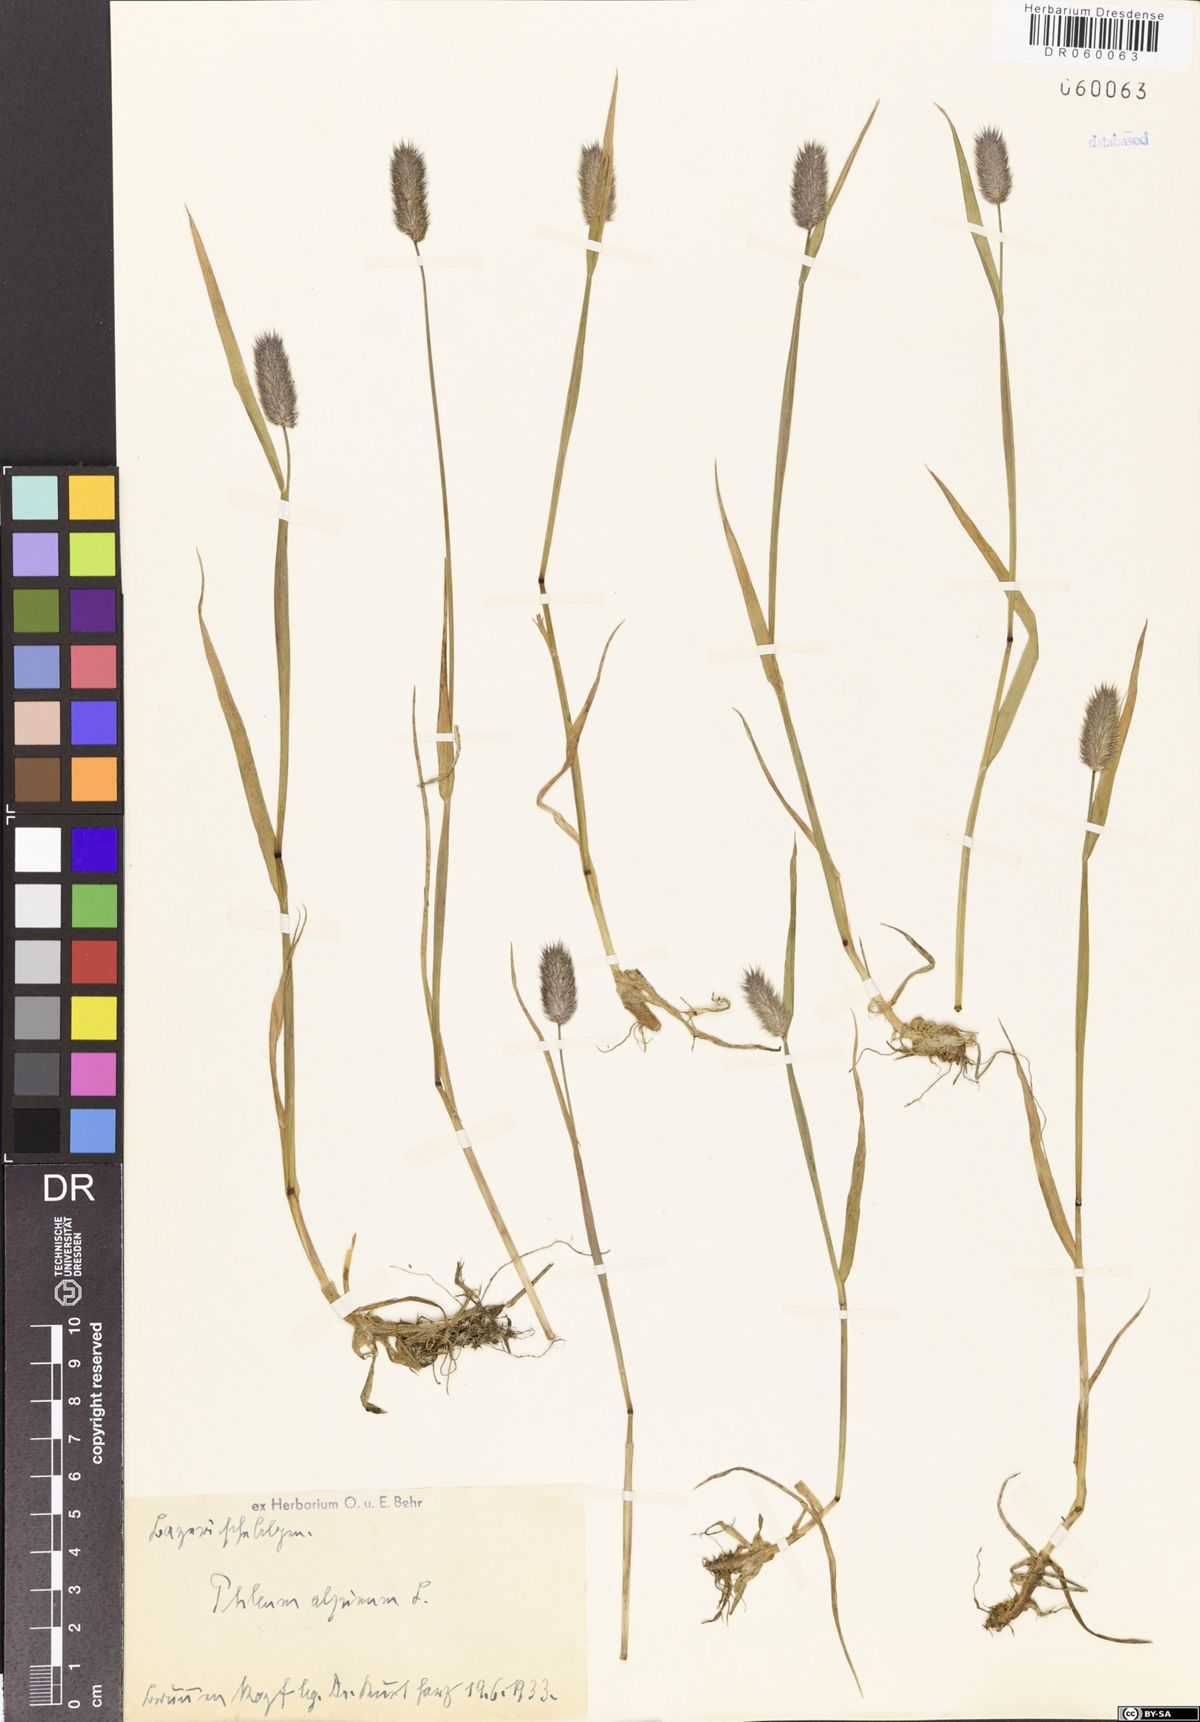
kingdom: Plantae
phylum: Tracheophyta
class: Liliopsida
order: Poales
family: Poaceae
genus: Phleum
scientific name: Phleum alpinum
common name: Alpine cat's-tail
